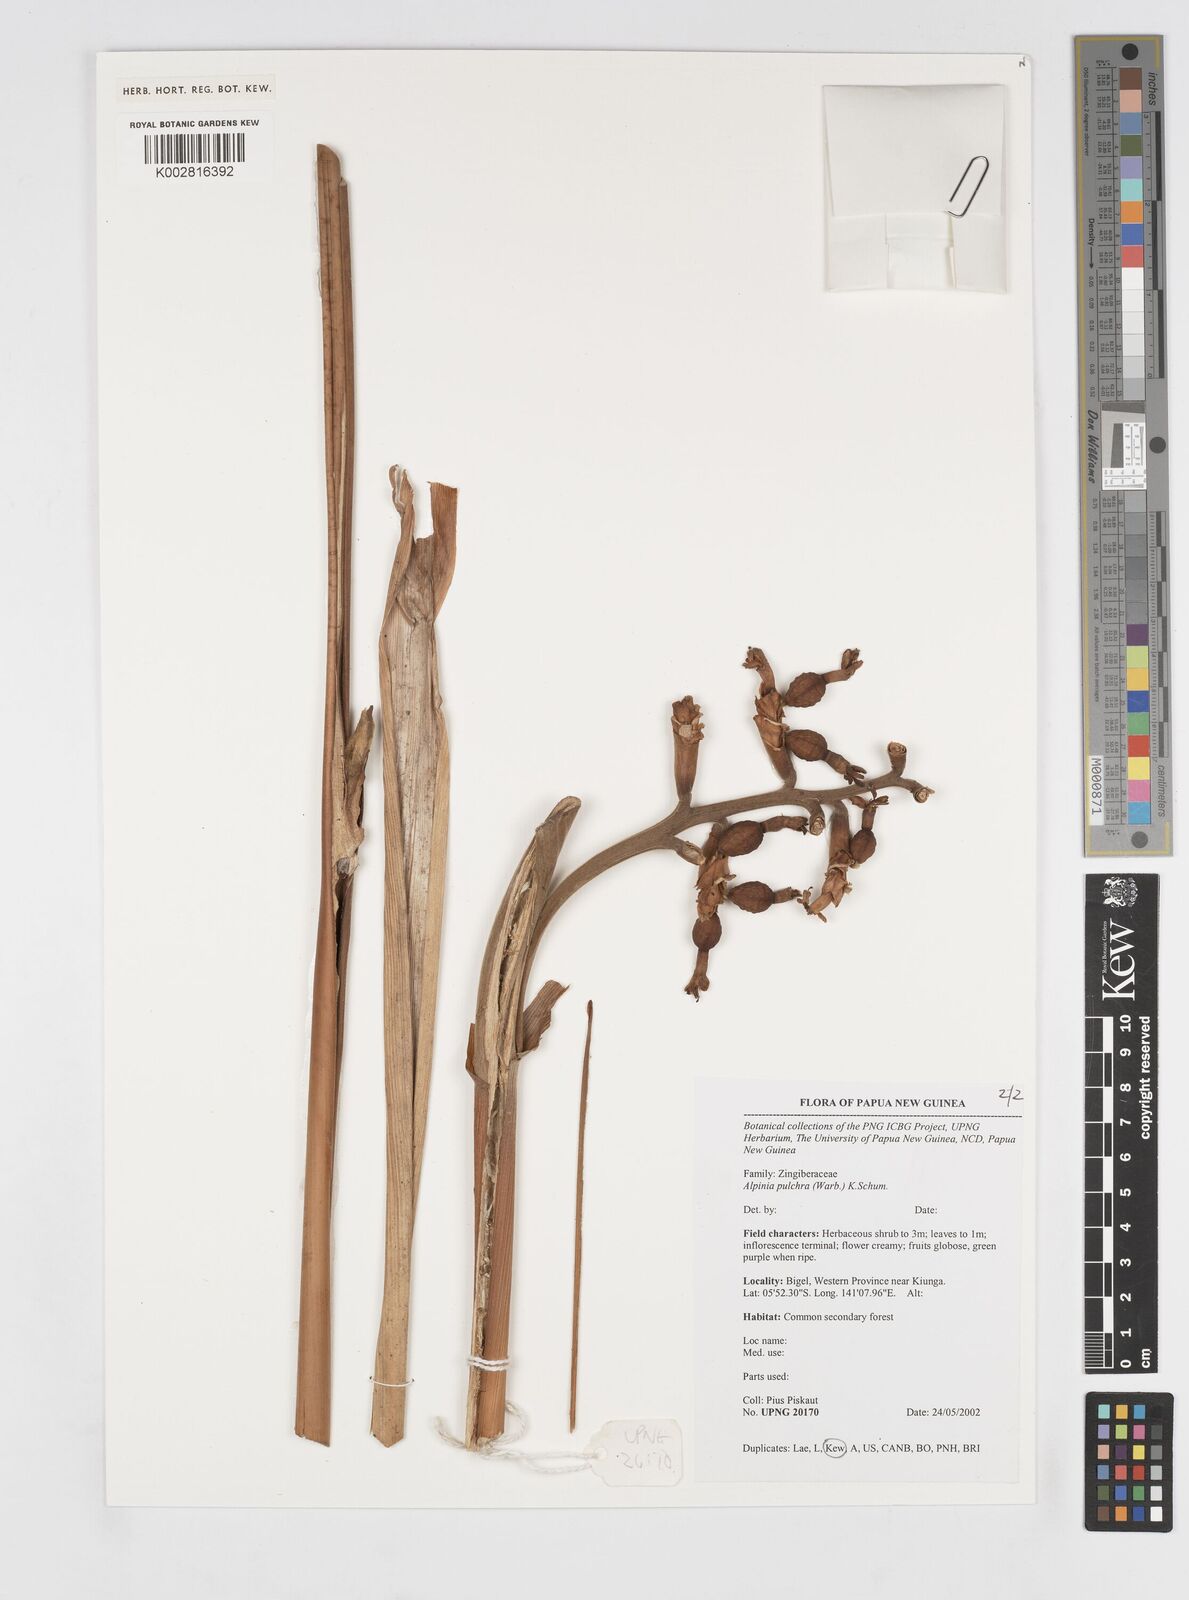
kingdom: Plantae
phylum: Tracheophyta
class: Liliopsida
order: Zingiberales
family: Zingiberaceae
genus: Alpinia
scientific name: Alpinia pulchra
